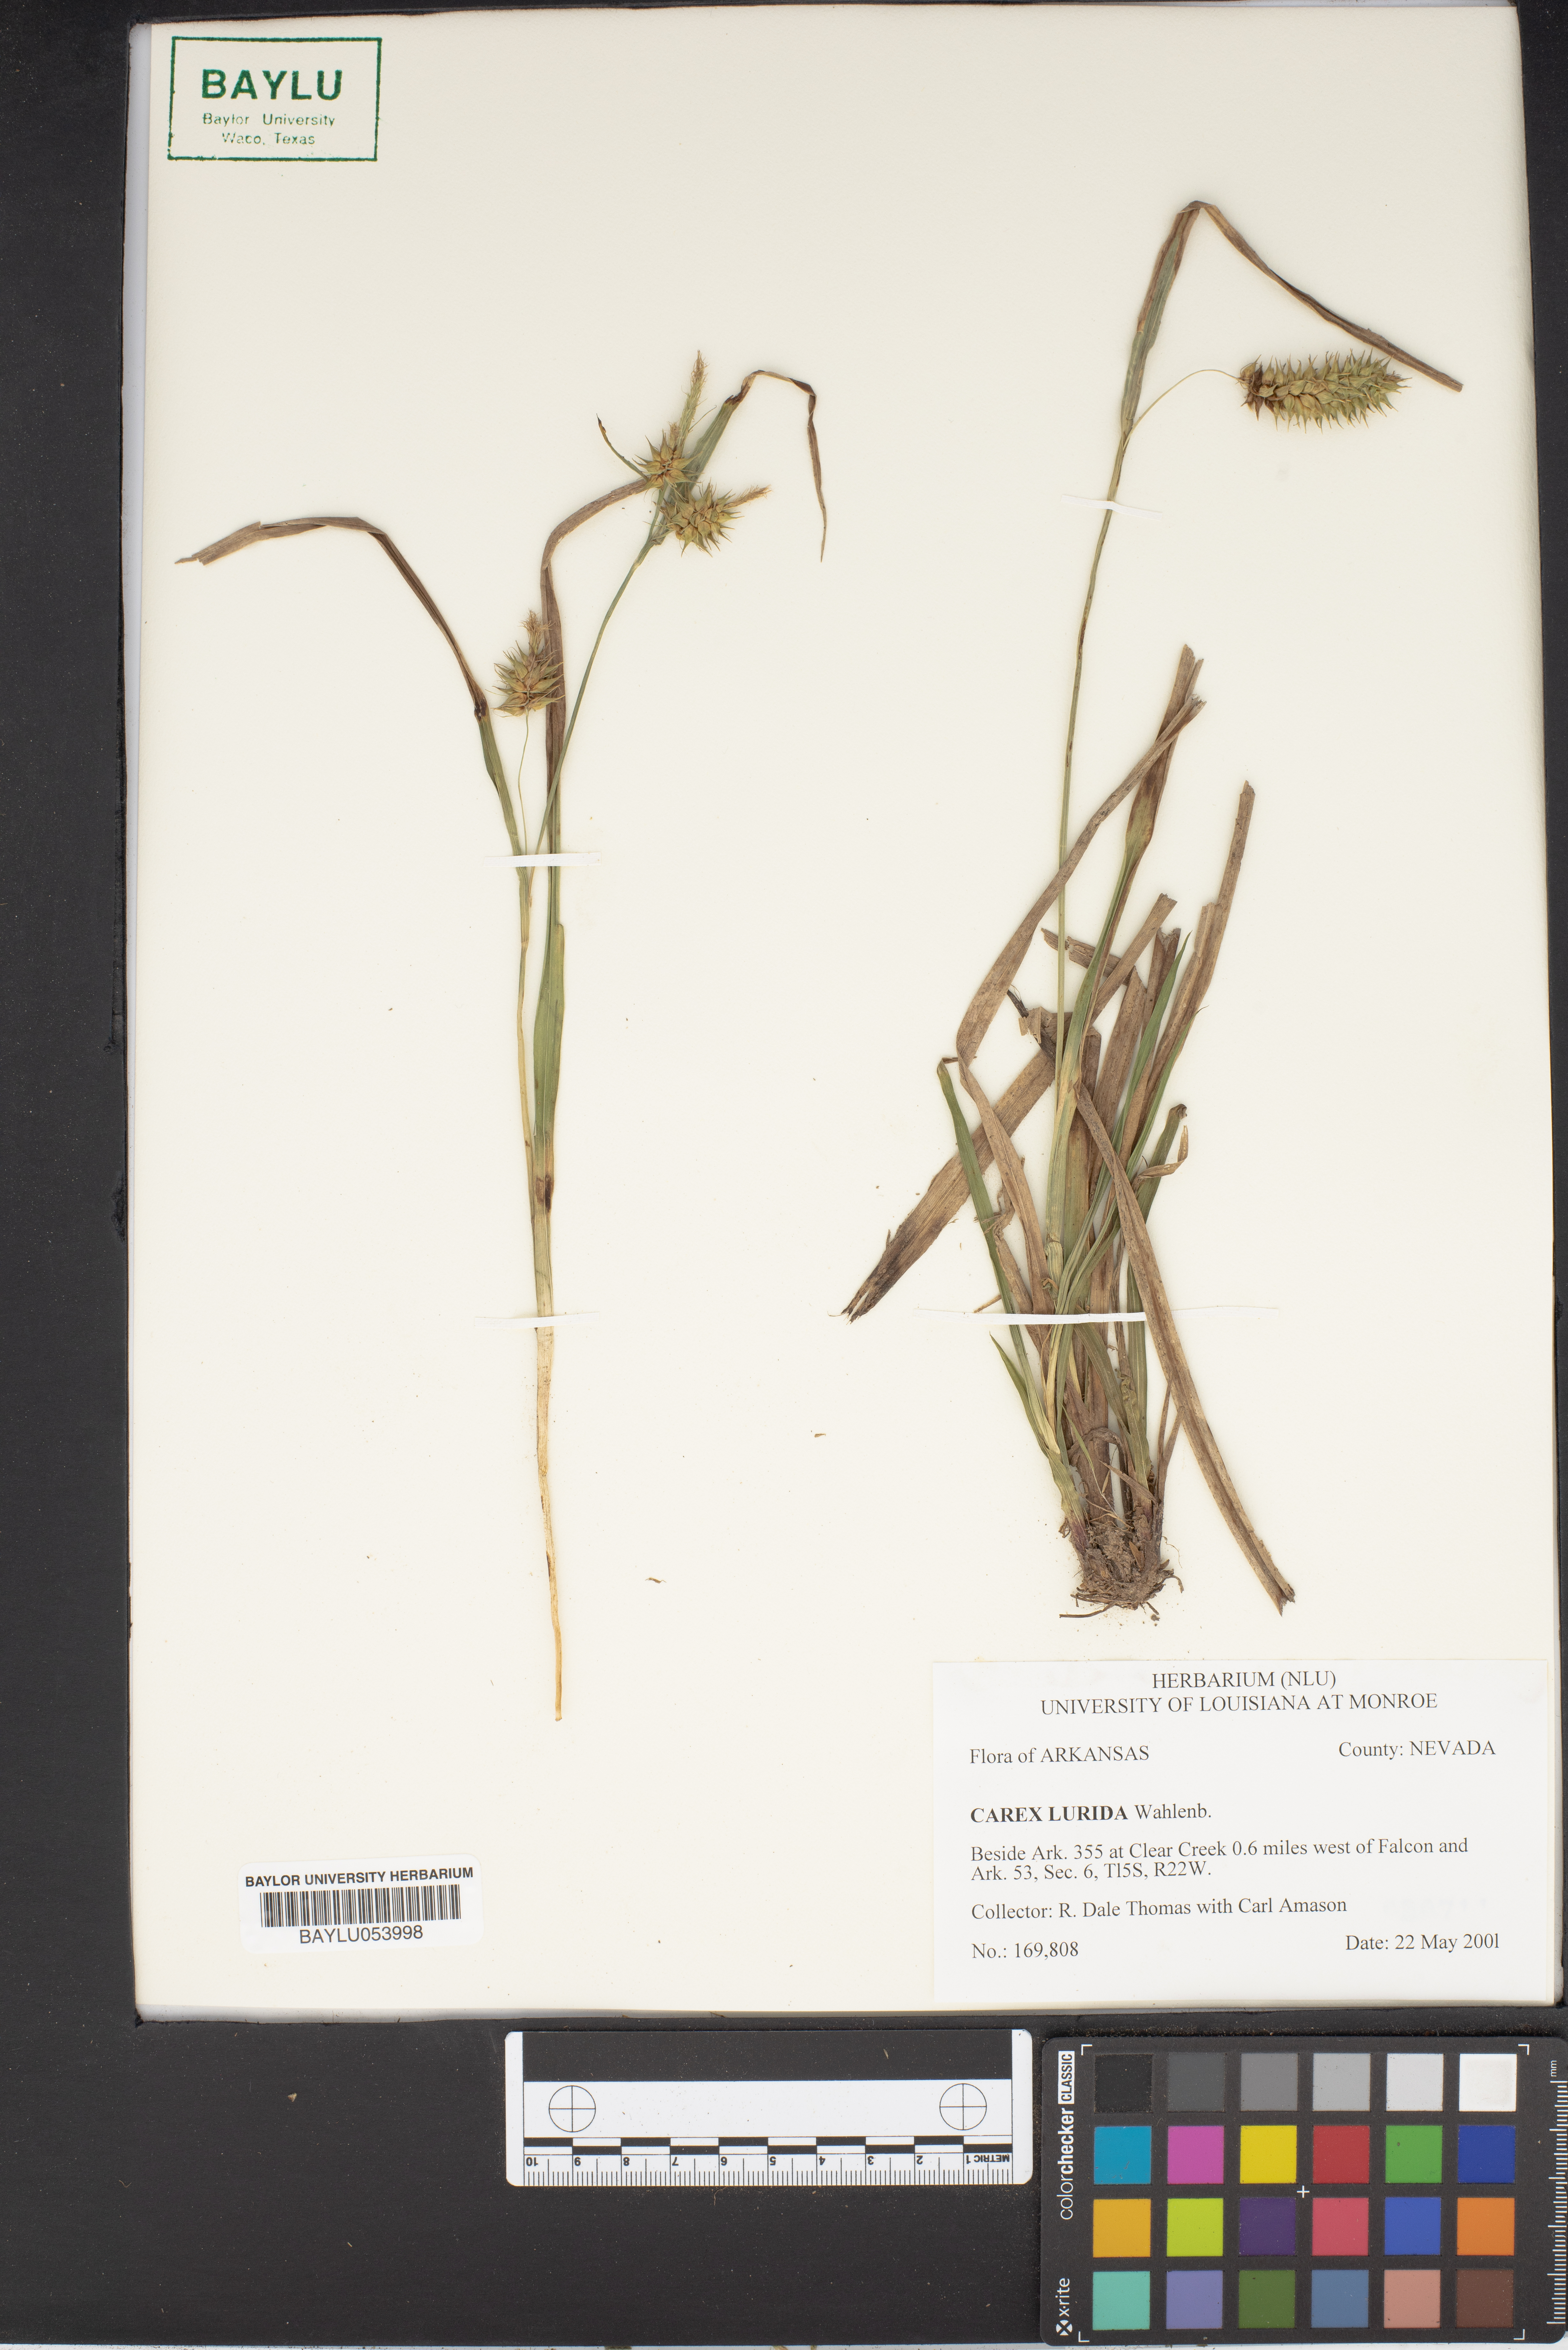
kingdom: Plantae
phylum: Tracheophyta
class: Liliopsida
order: Poales
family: Cyperaceae
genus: Carex
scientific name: Carex lurida
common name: Sallow sedge
